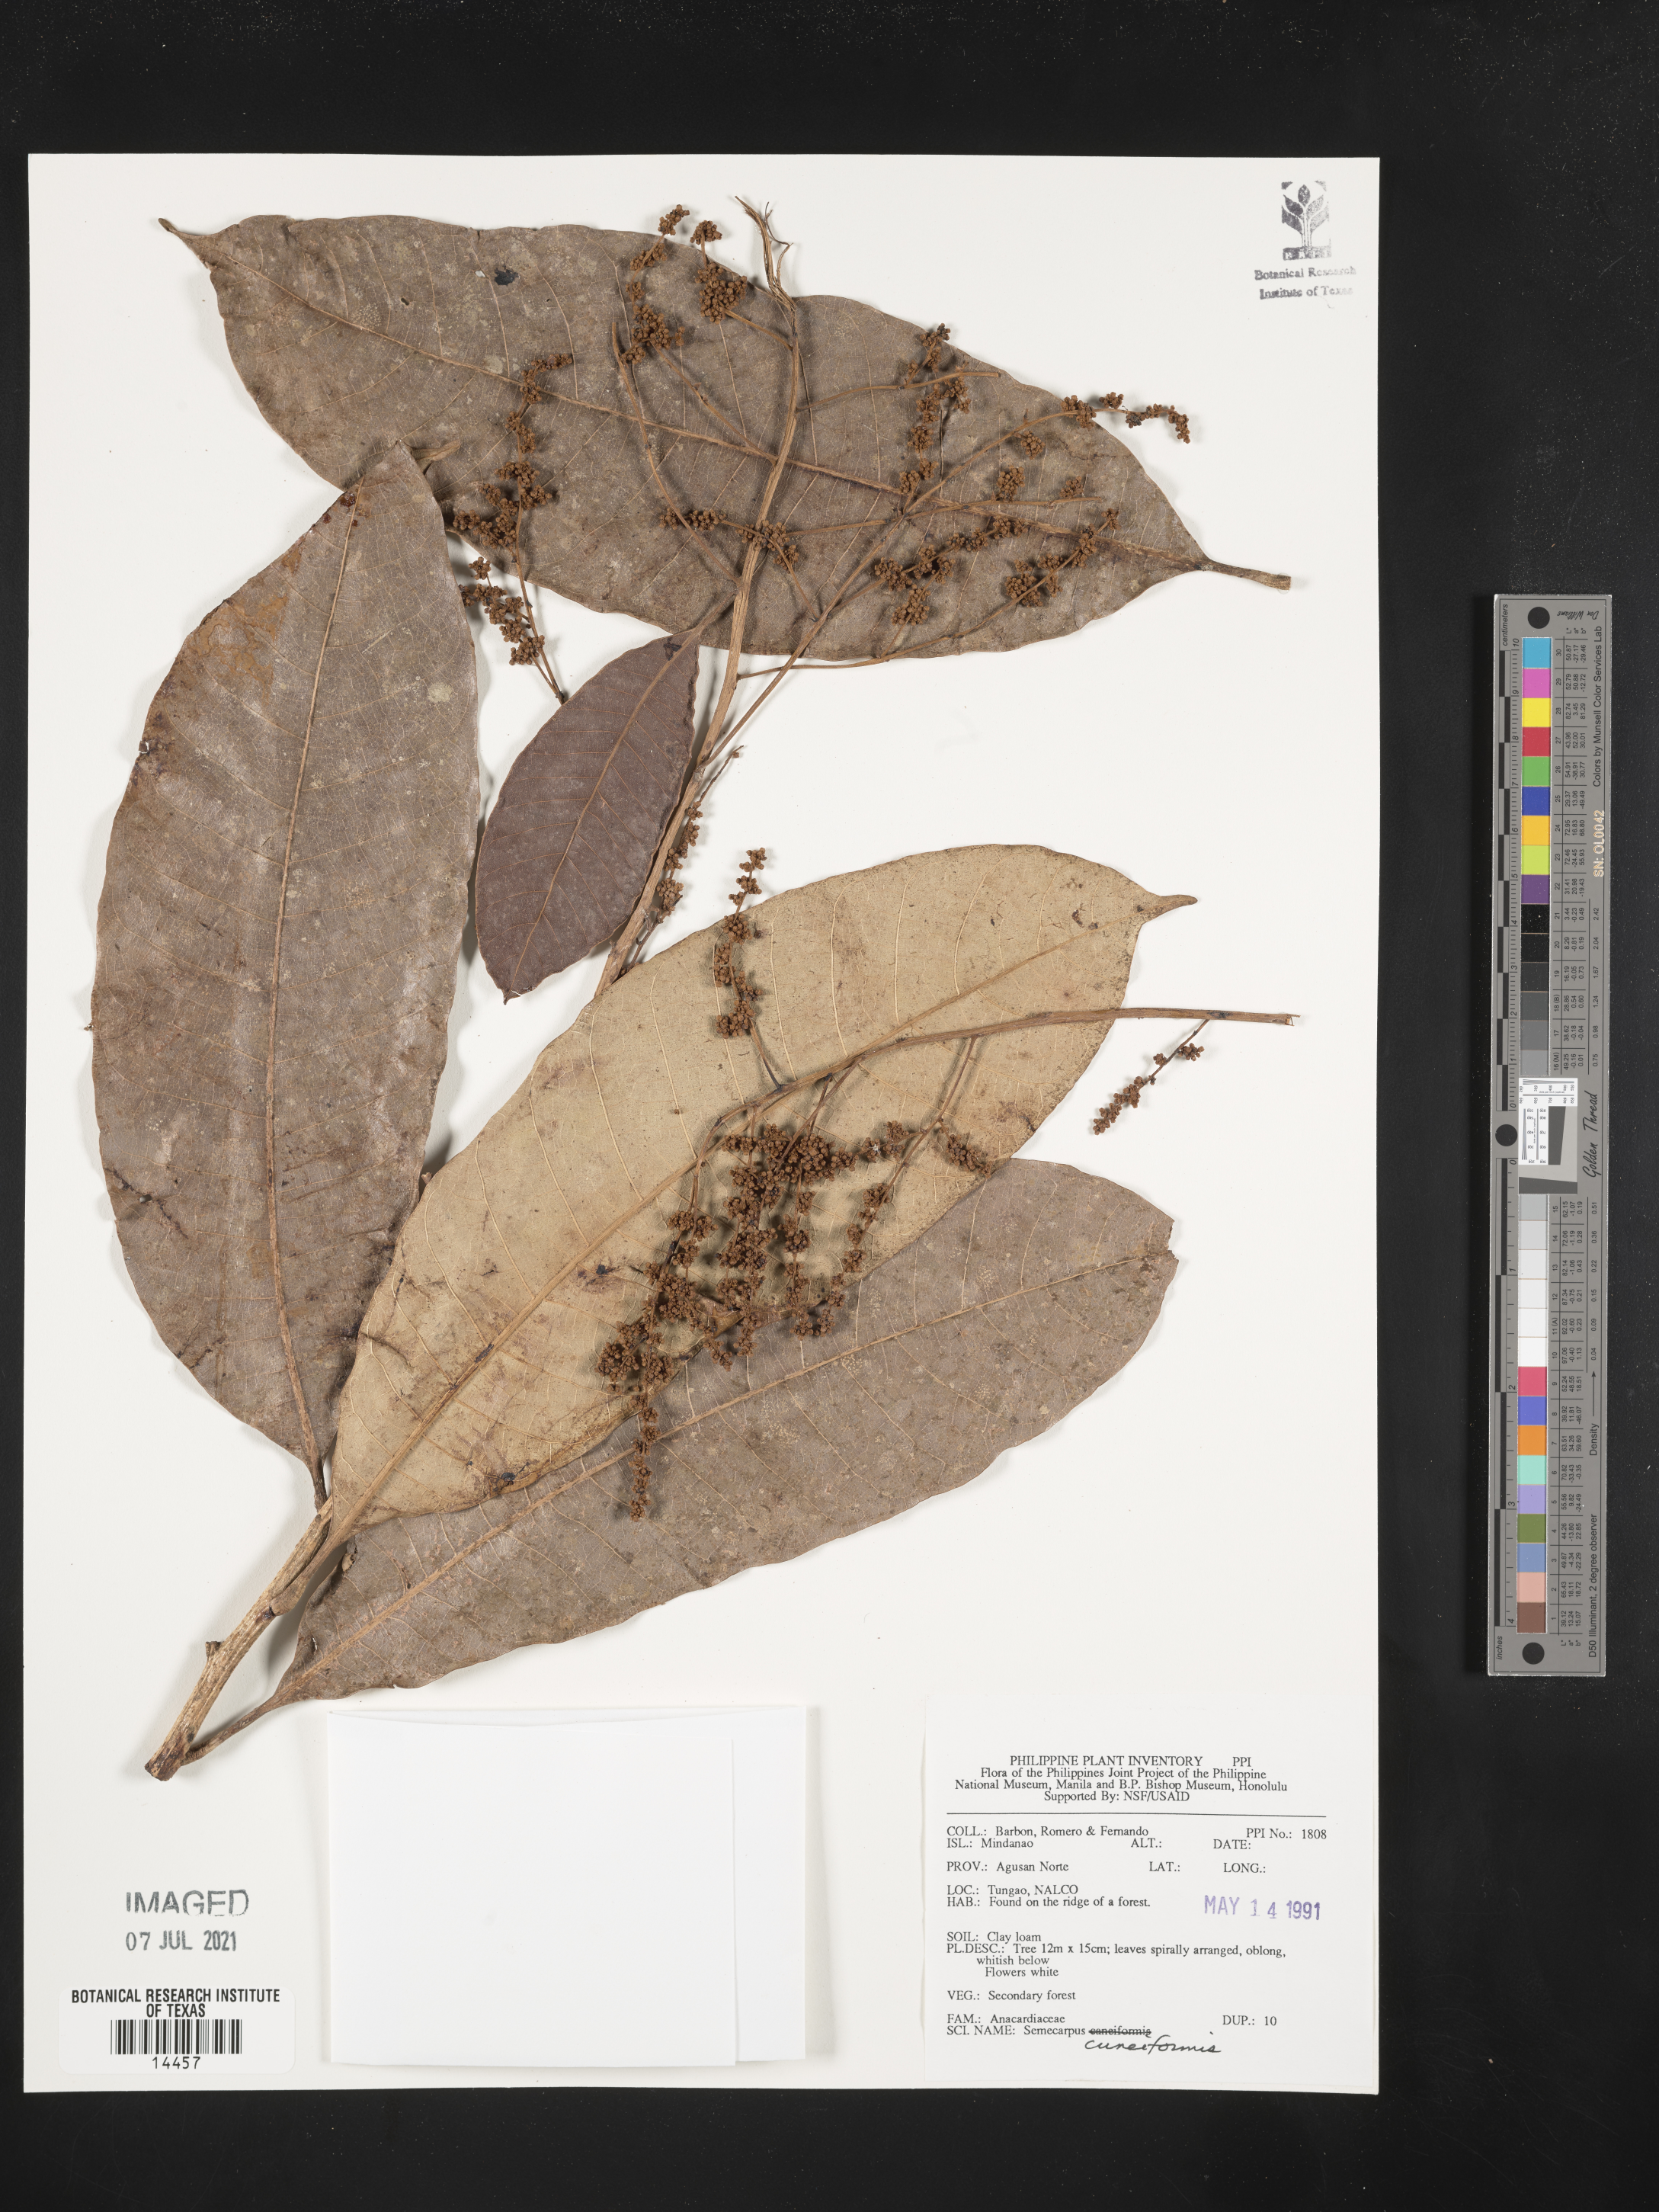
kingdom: Plantae
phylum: Tracheophyta
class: Magnoliopsida
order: Sapindales
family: Anacardiaceae
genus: Semecarpus
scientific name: Semecarpus cuneiformis
